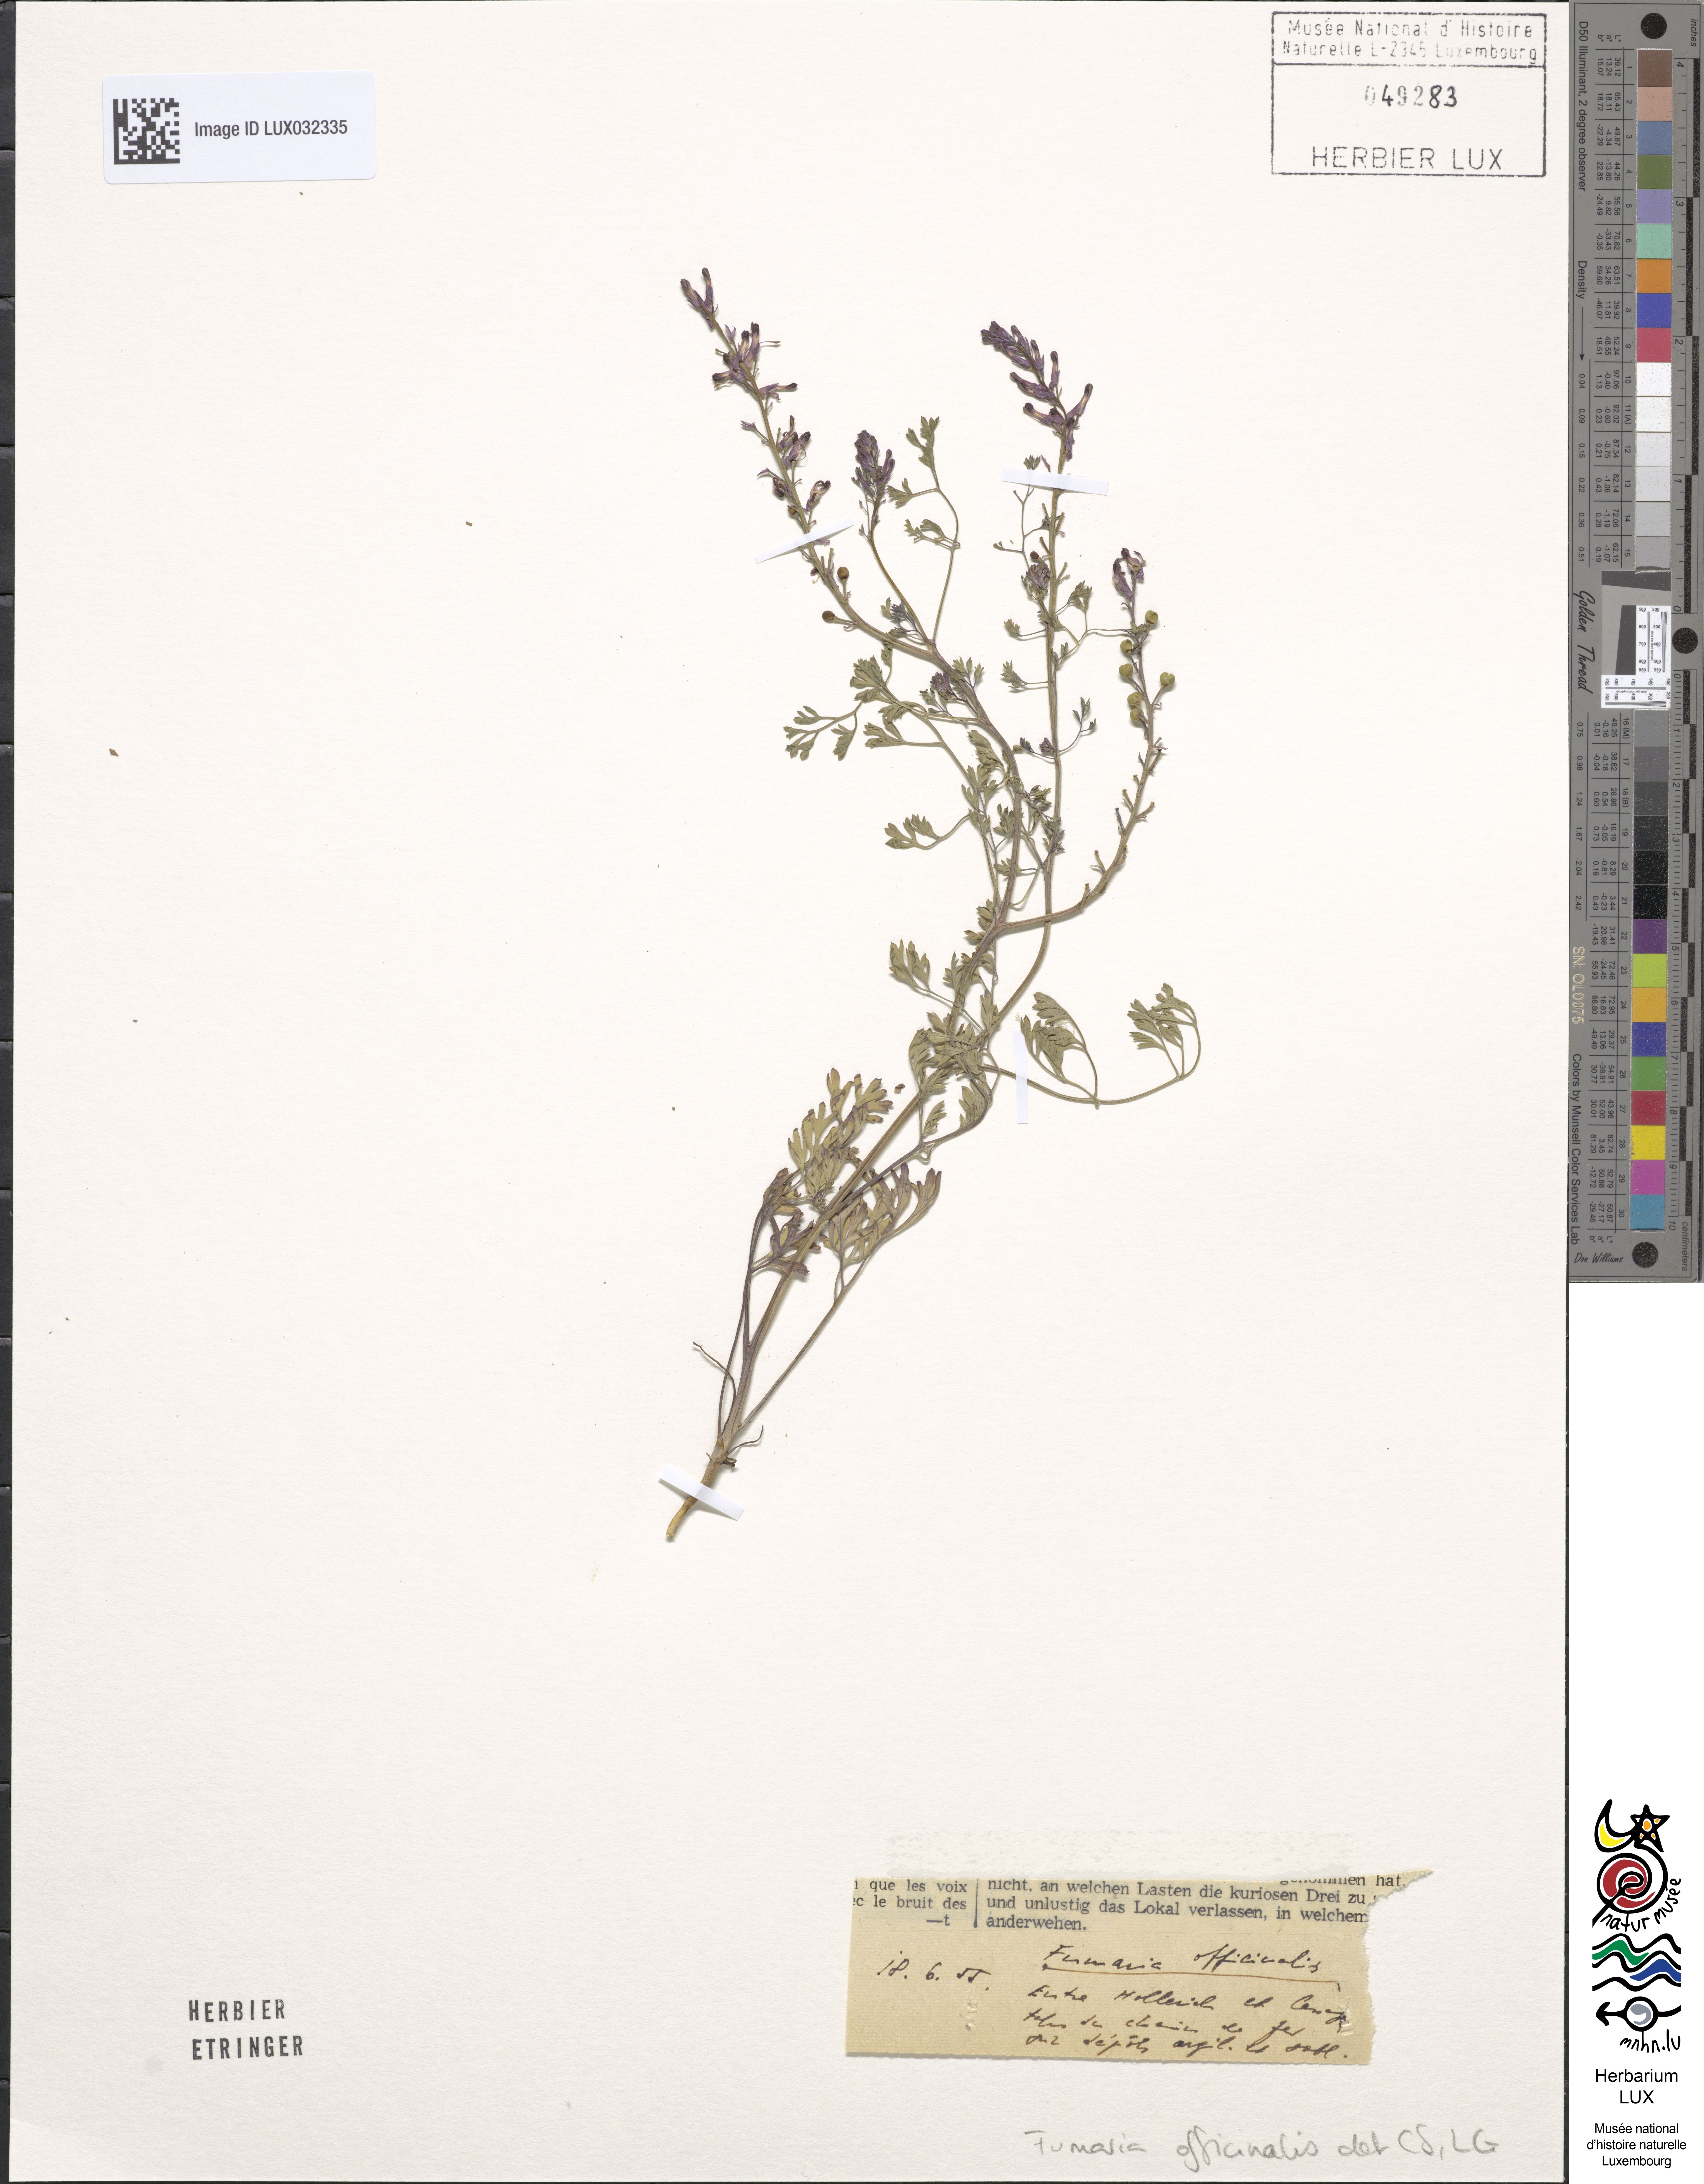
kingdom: Plantae
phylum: Tracheophyta
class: Magnoliopsida
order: Ranunculales
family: Papaveraceae
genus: Fumaria
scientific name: Fumaria officinalis
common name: Common fumitory
